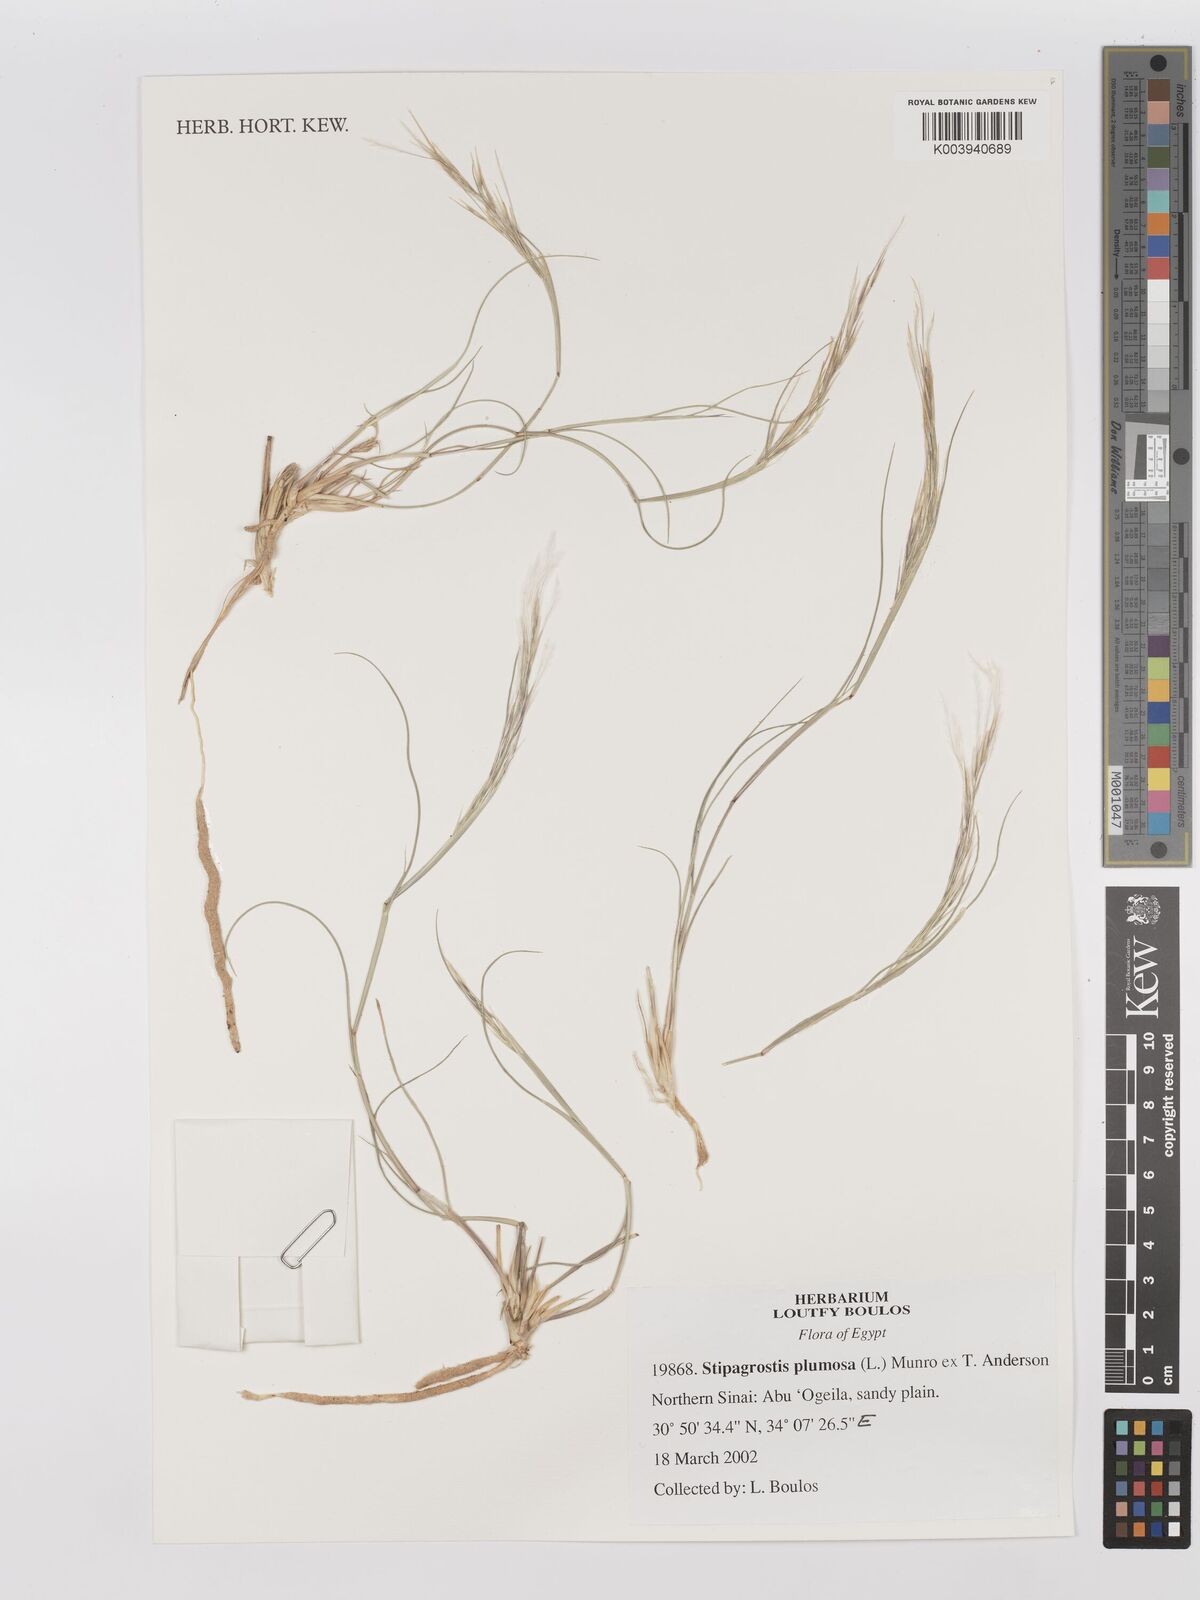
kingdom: Plantae
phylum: Tracheophyta
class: Liliopsida
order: Poales
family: Poaceae
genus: Stipagrostis
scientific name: Stipagrostis plumosa
